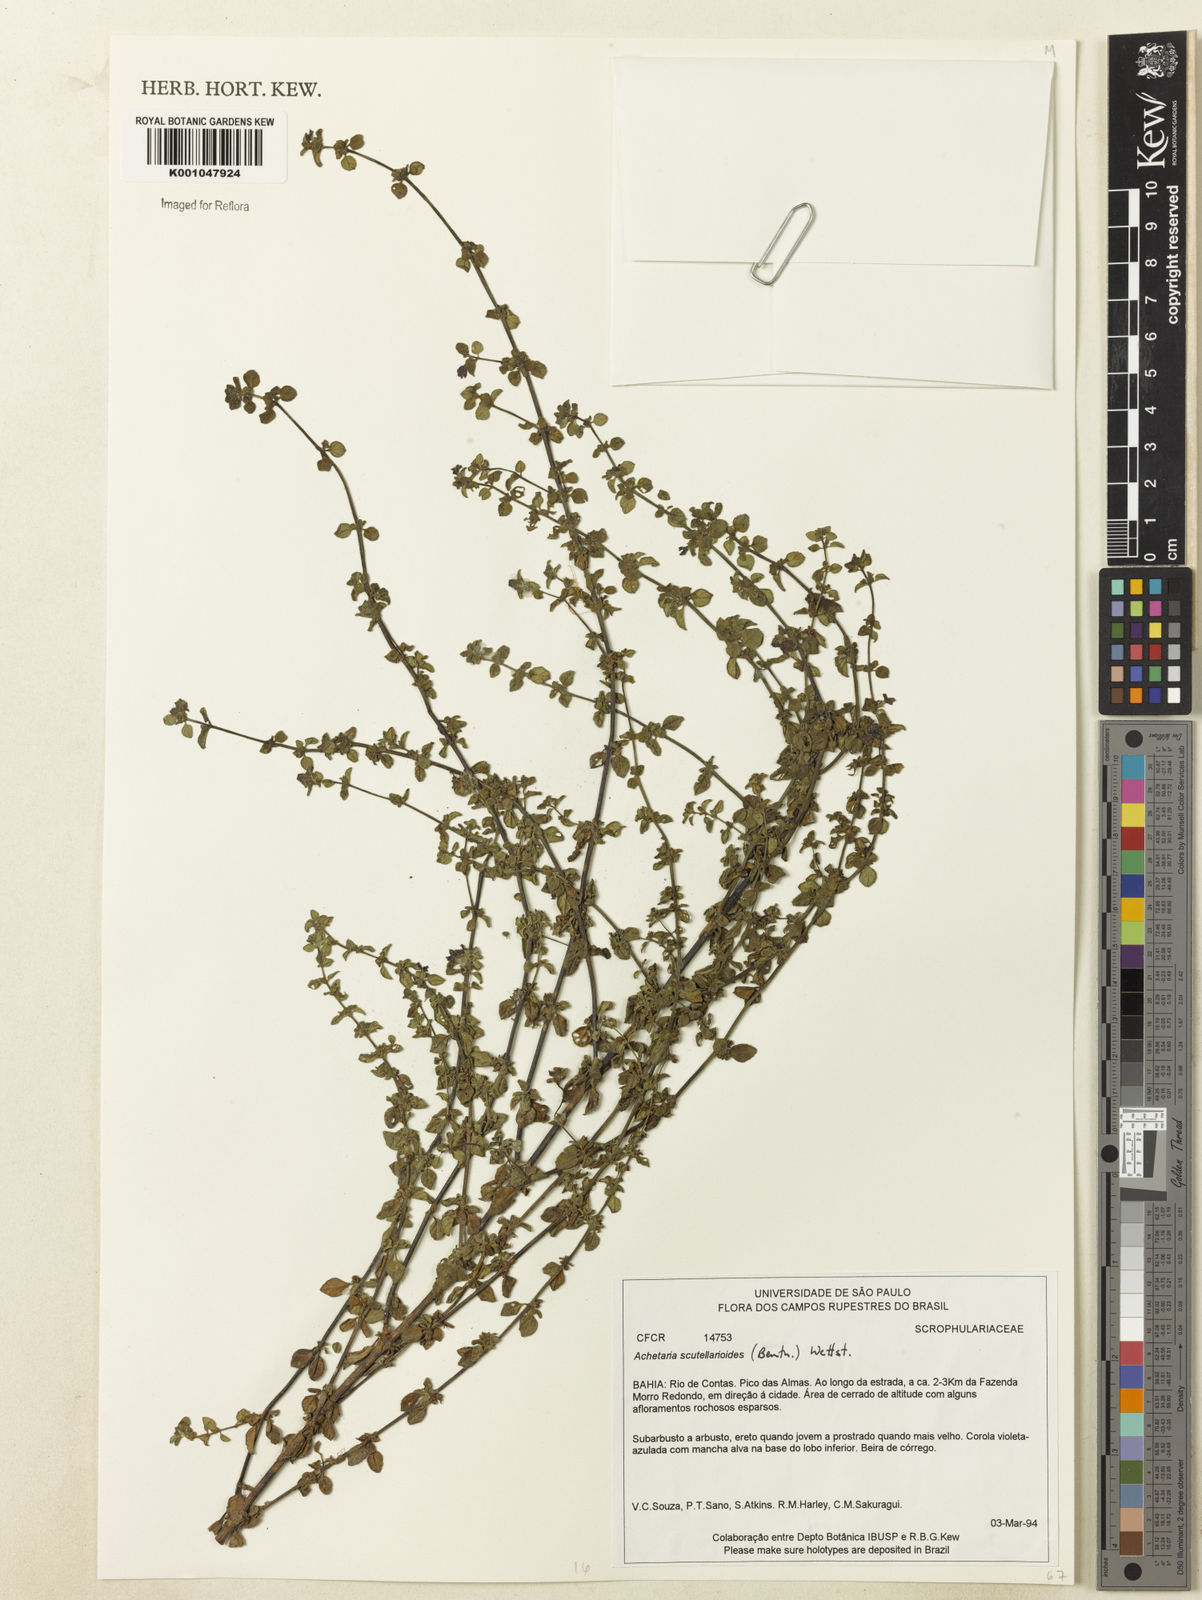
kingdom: Plantae
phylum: Tracheophyta
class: Magnoliopsida
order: Lamiales
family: Plantaginaceae
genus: Matourea
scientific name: Matourea scutellarioides
